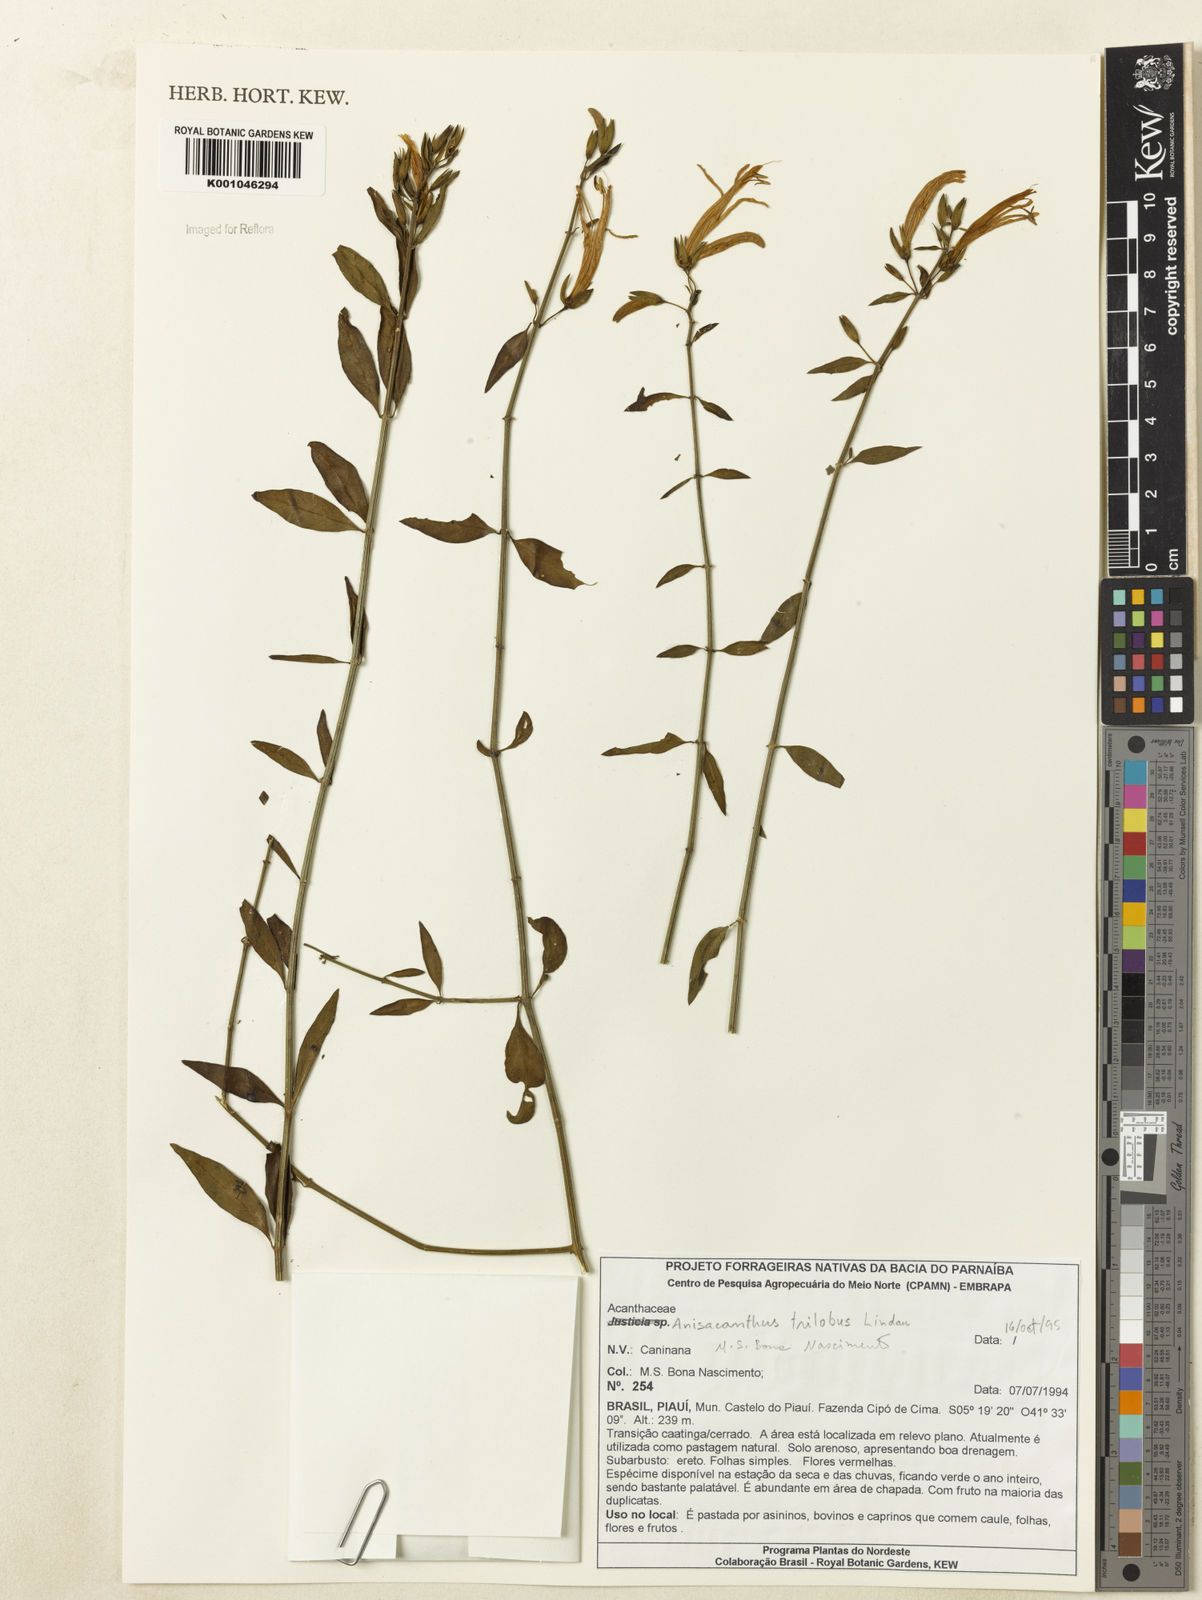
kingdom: Plantae
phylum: Tracheophyta
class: Magnoliopsida
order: Lamiales
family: Acanthaceae
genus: Justicia
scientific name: Justicia triloba
